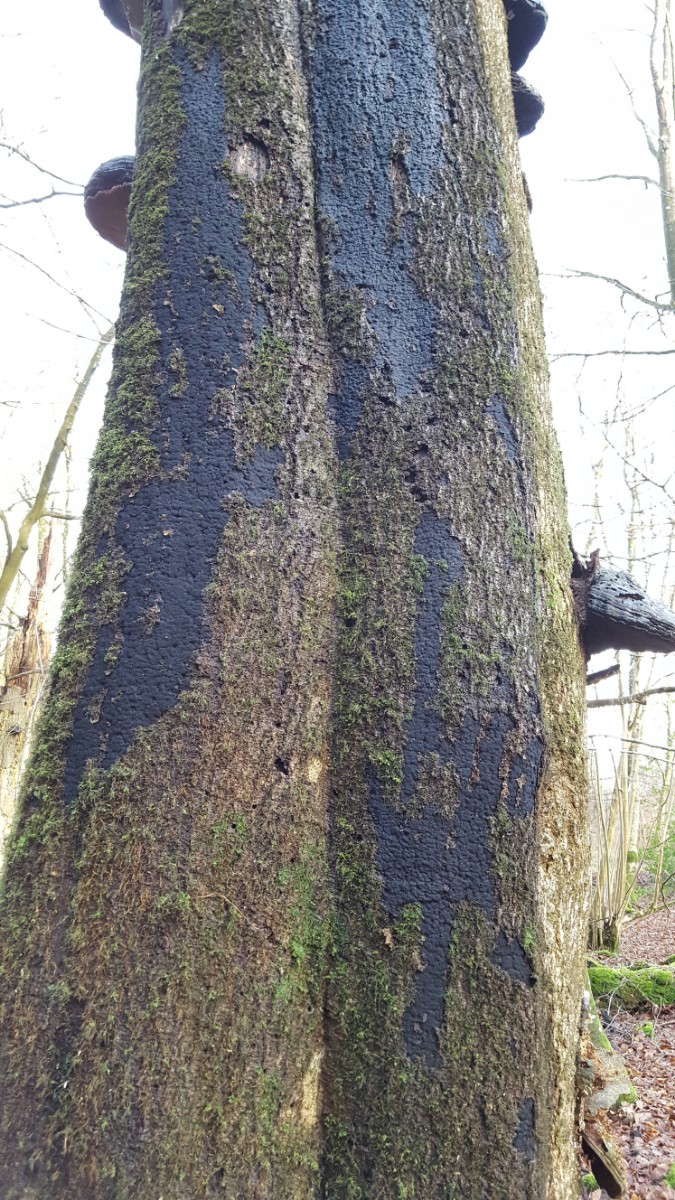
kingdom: Fungi
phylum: Ascomycota
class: Sordariomycetes
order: Xylariales
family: Diatrypaceae
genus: Eutypa
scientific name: Eutypa spinosa
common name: grov kulskorpe
